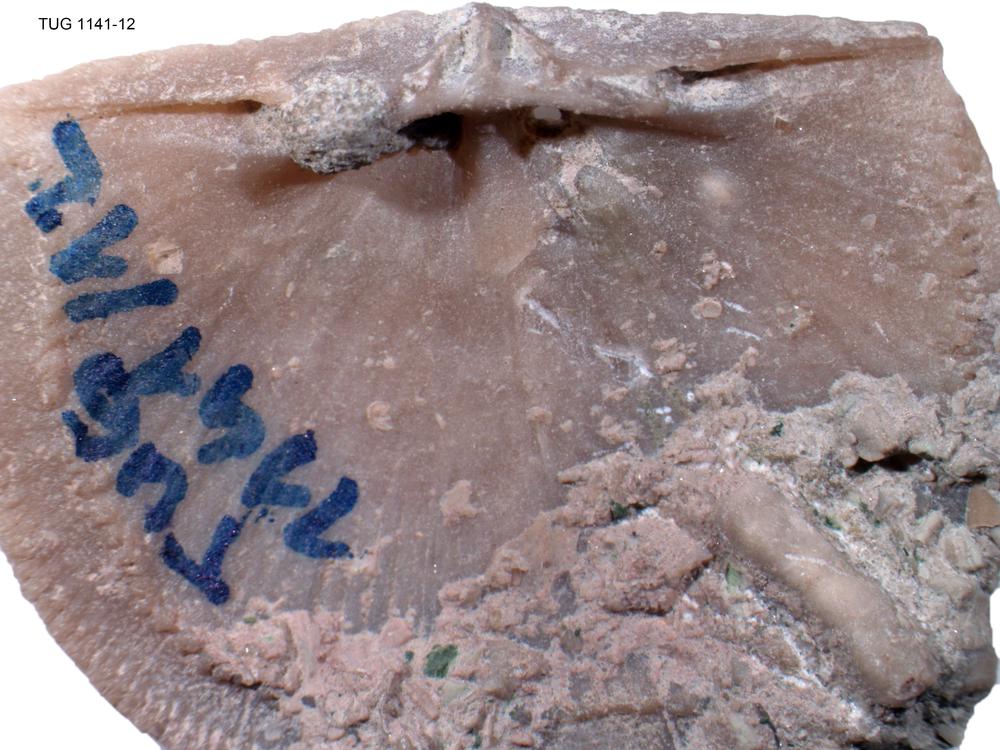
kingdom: Animalia
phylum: Brachiopoda
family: Gonambonitidae
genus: Gonambonites
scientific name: Gonambonites plana
